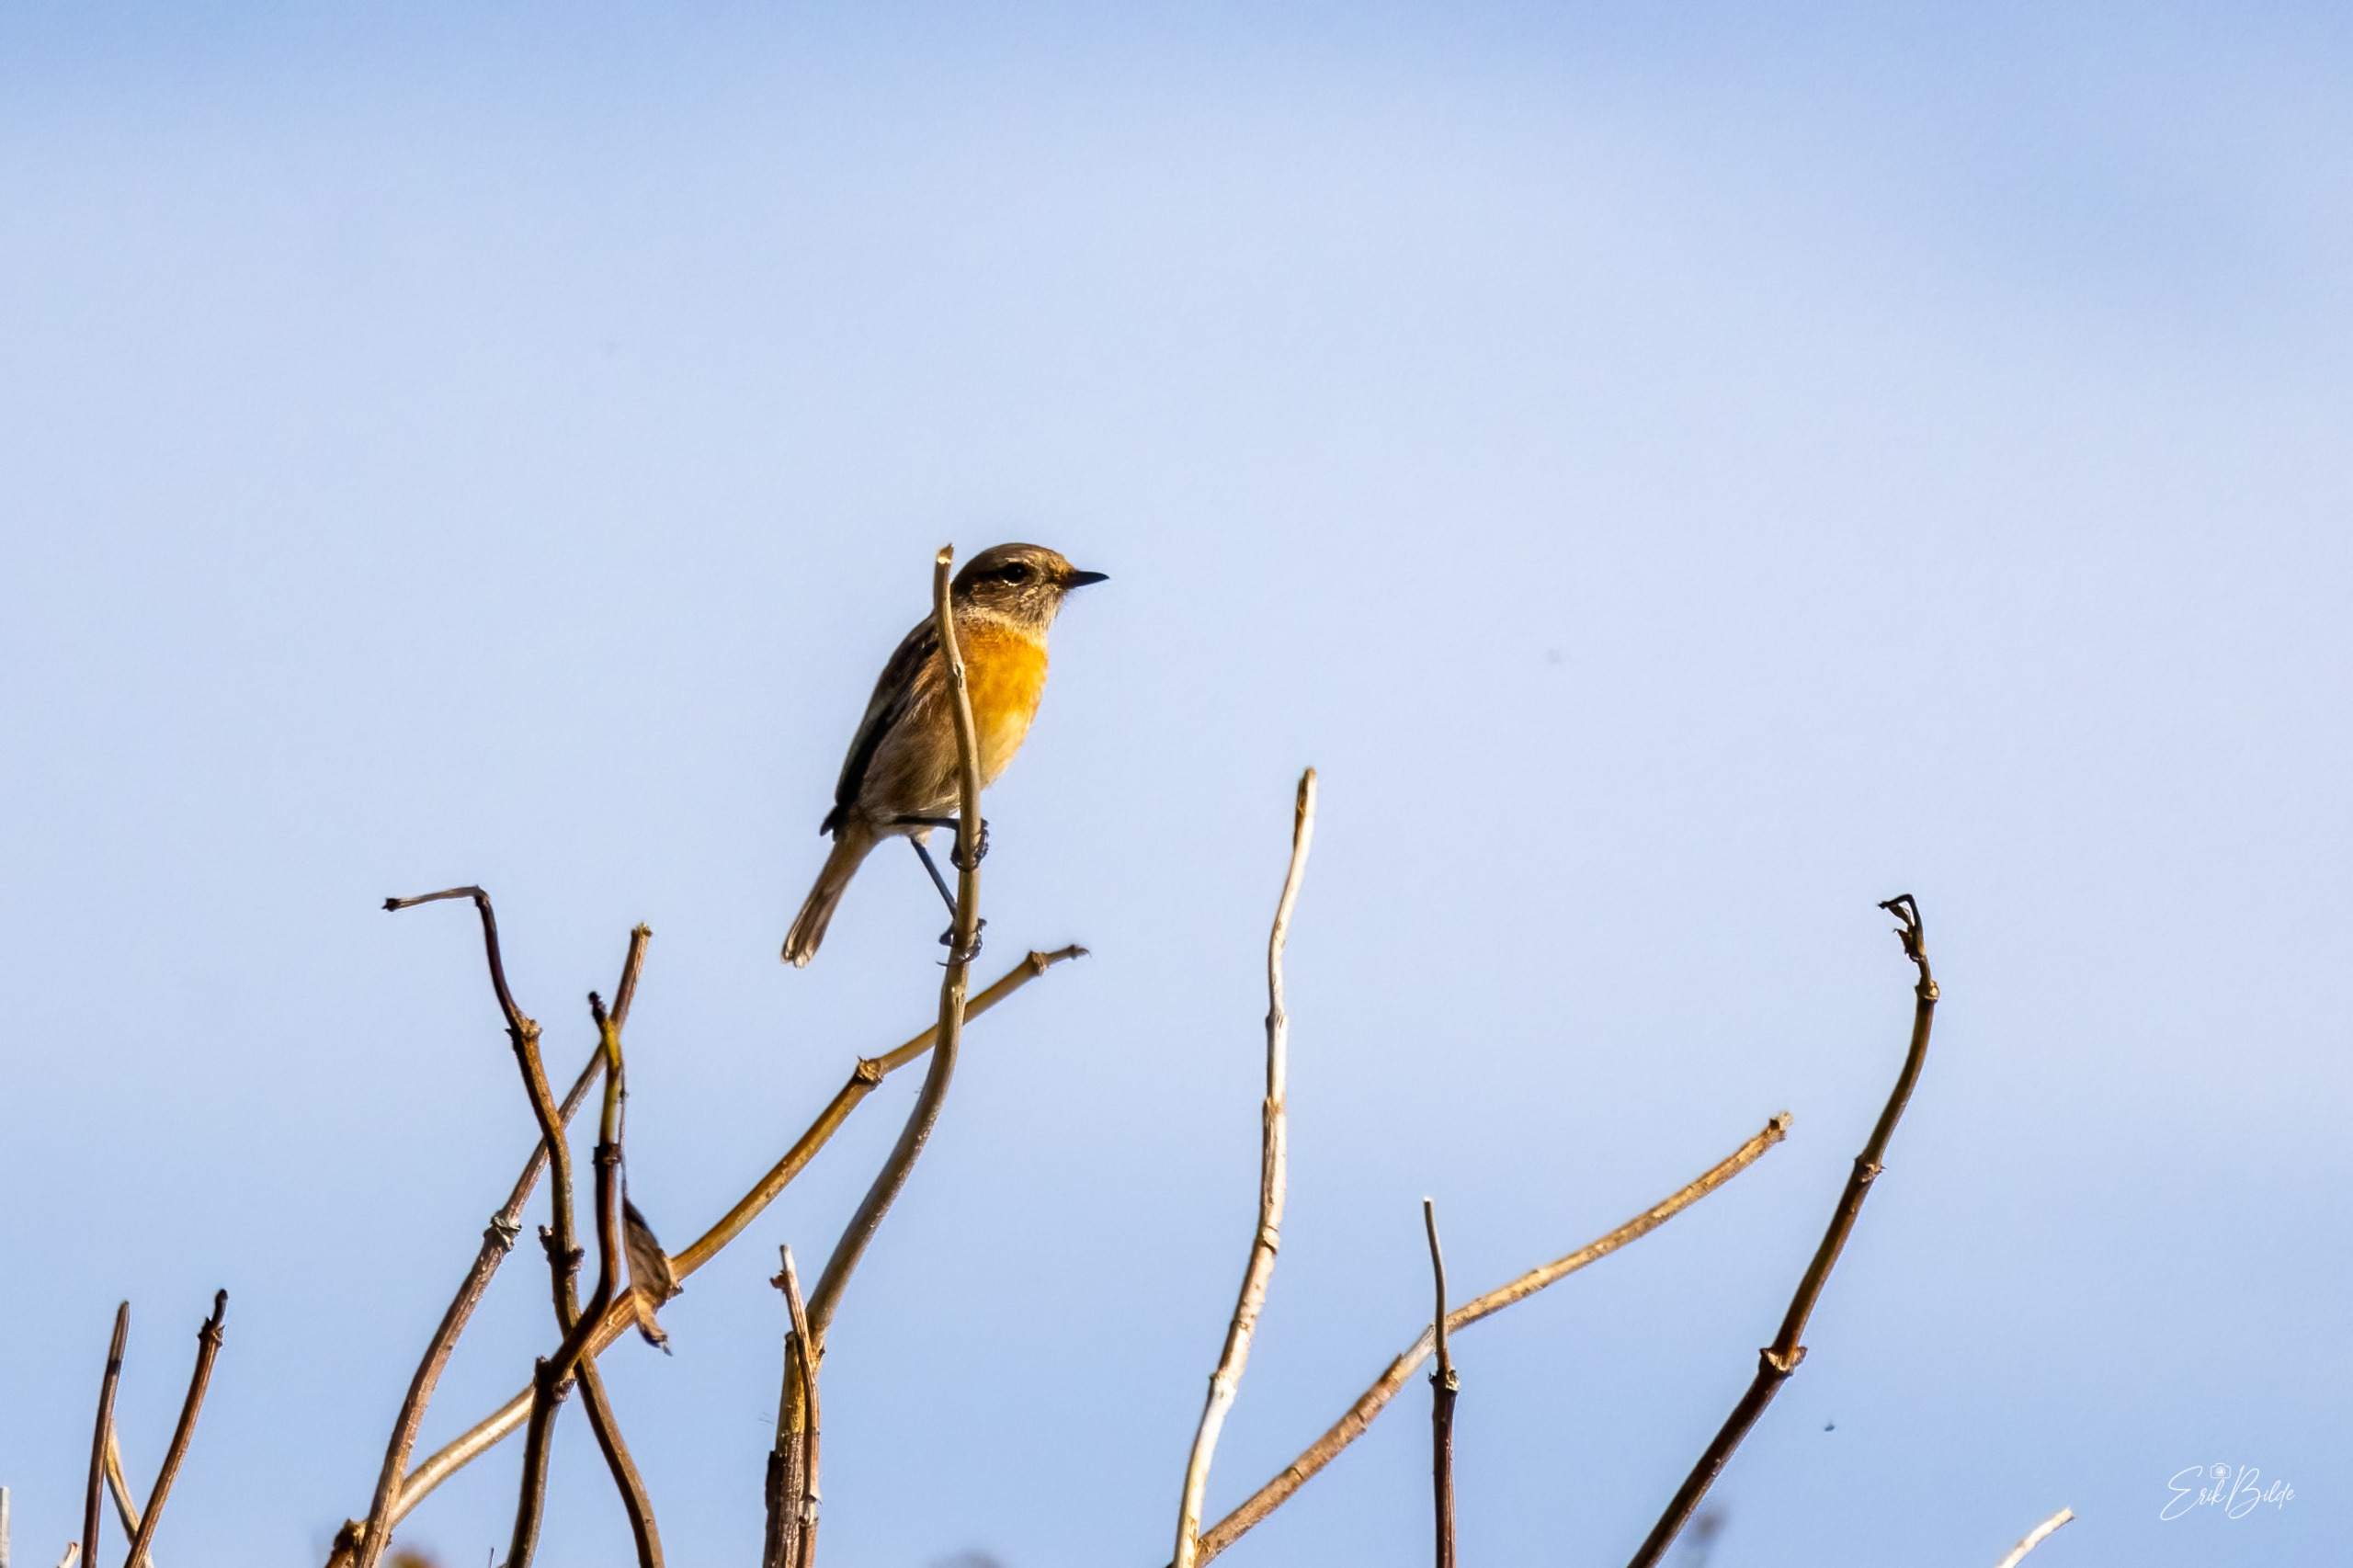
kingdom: Animalia
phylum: Chordata
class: Aves
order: Passeriformes
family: Muscicapidae
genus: Saxicola
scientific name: Saxicola rubicola
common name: Sortstrubet bynkefugl
